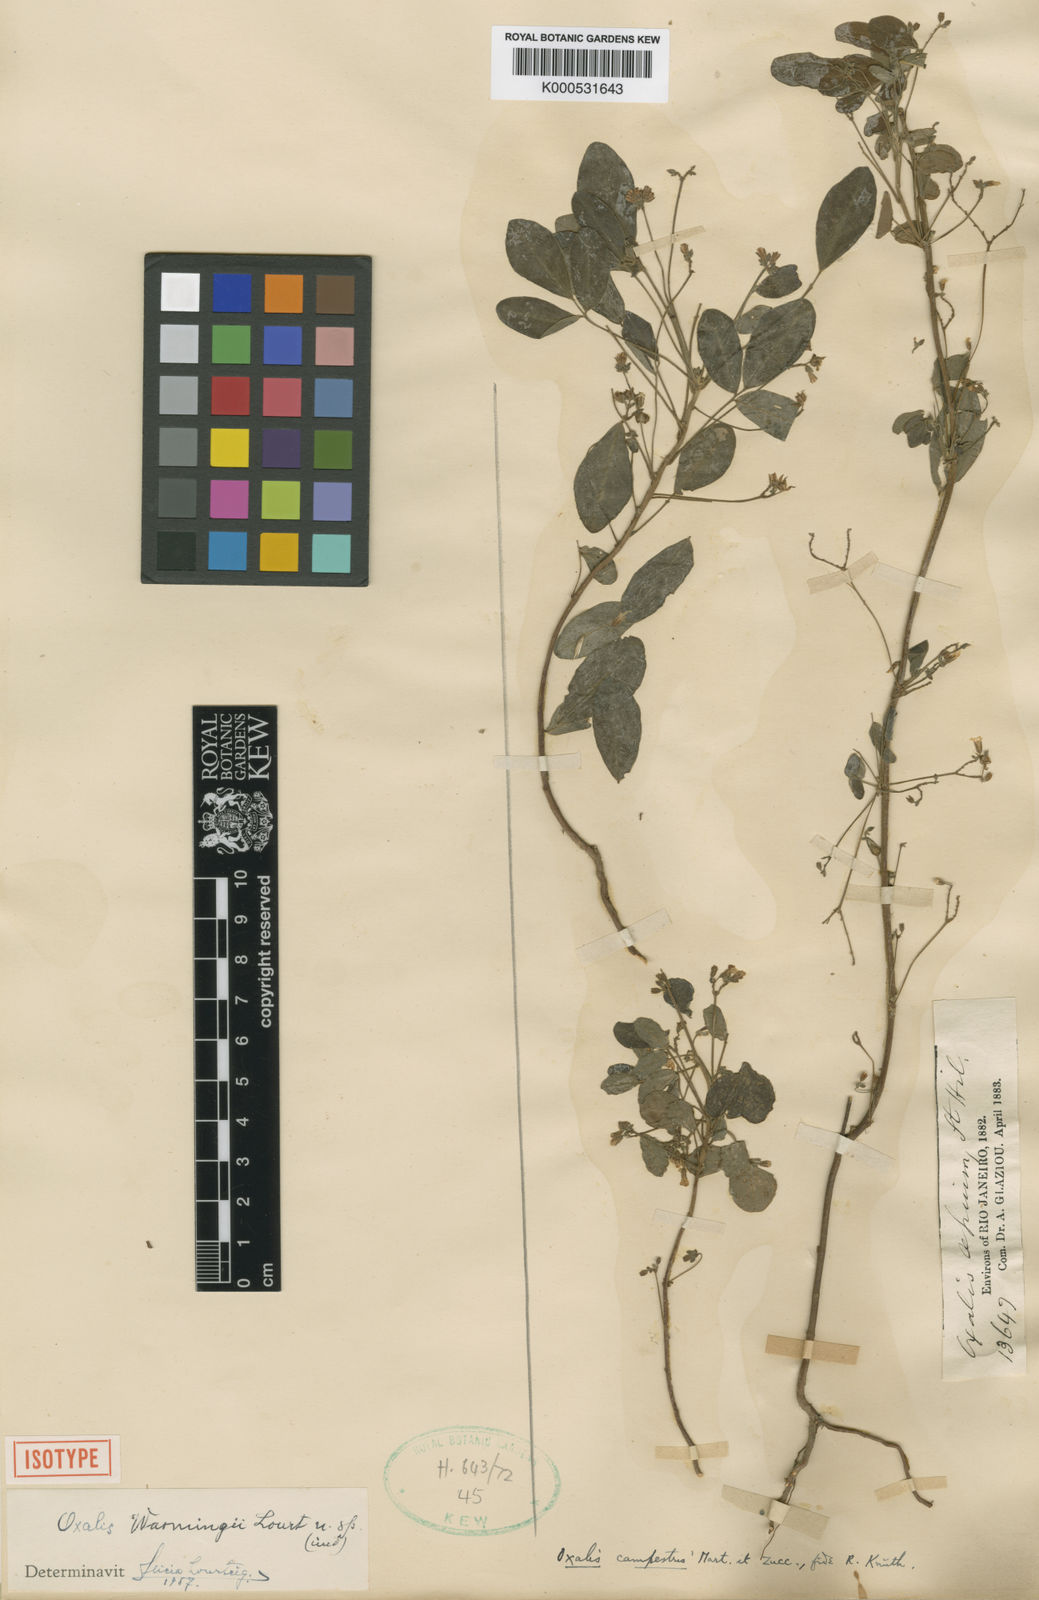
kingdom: Plantae
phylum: Tracheophyta
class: Magnoliopsida
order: Oxalidales
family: Oxalidaceae
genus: Oxalis
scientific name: Oxalis
